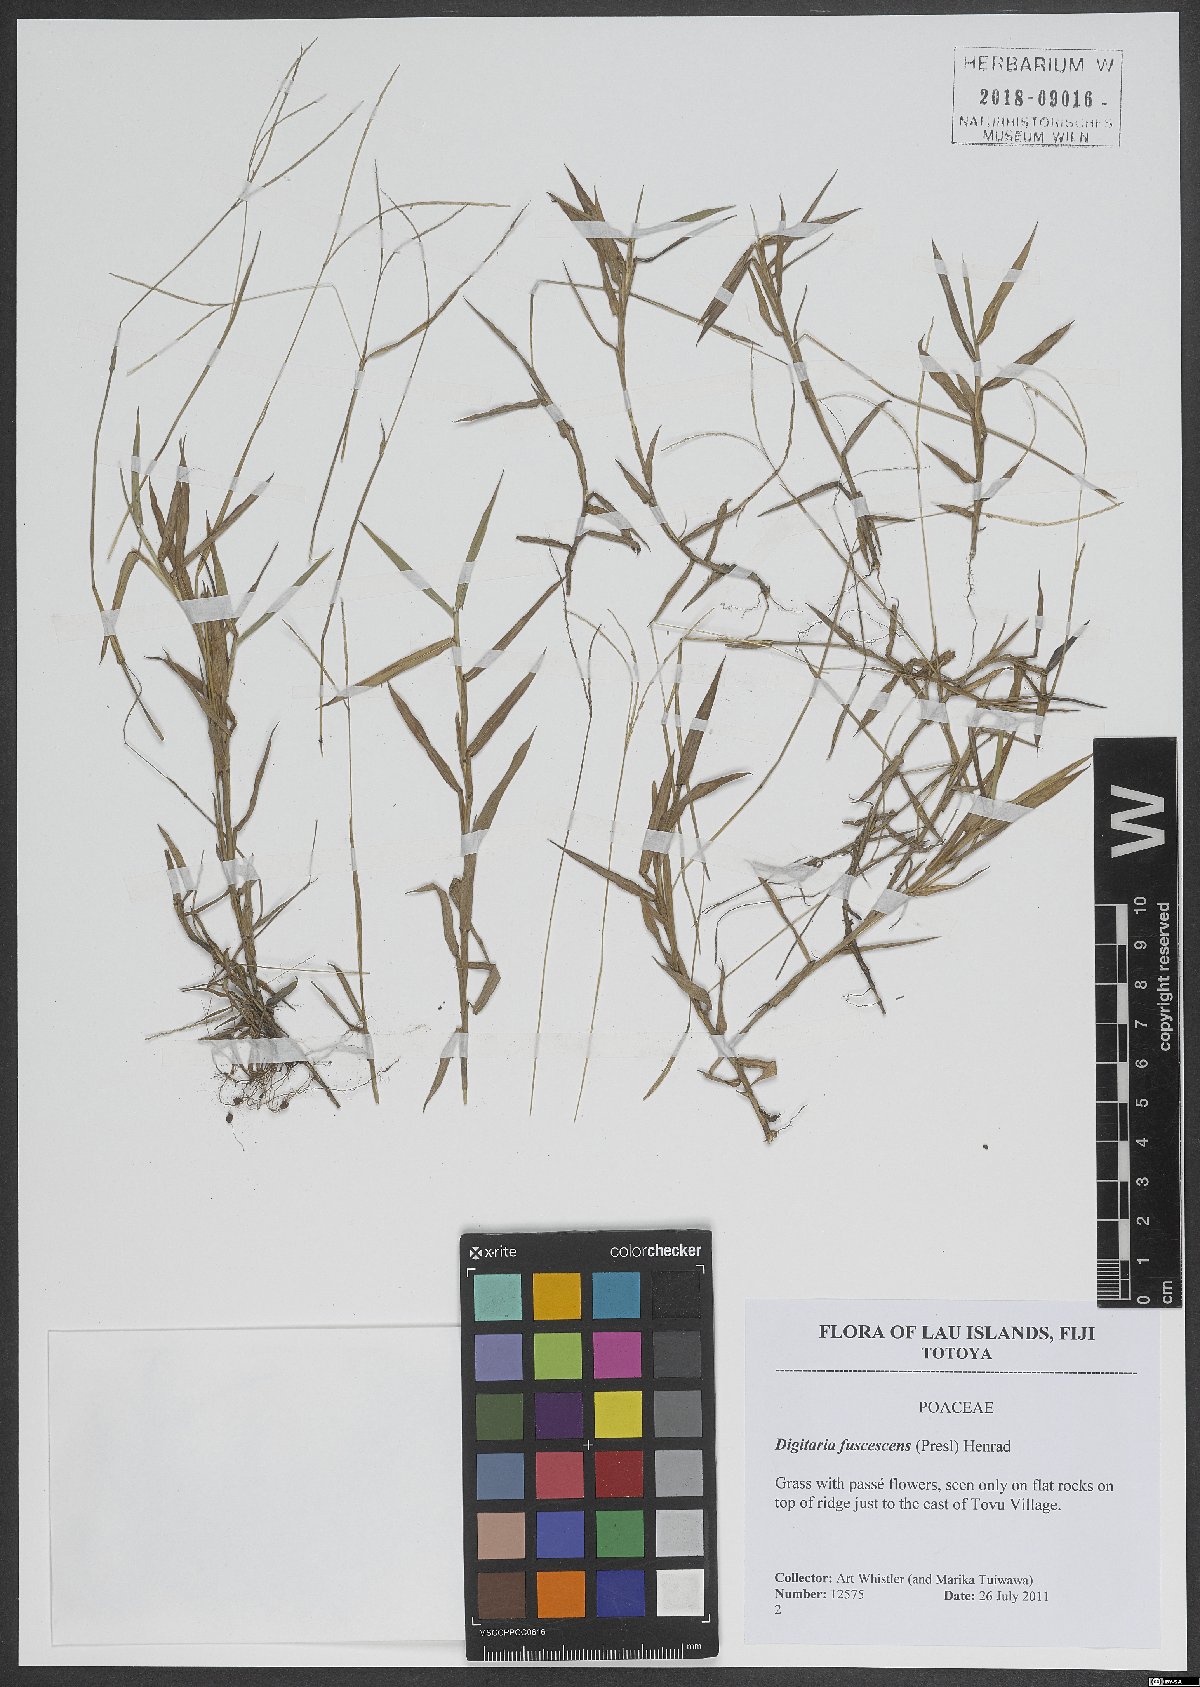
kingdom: Plantae
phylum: Tracheophyta
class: Liliopsida
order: Poales
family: Poaceae
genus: Digitaria
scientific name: Digitaria fuscescens
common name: Yellow crabgrass
